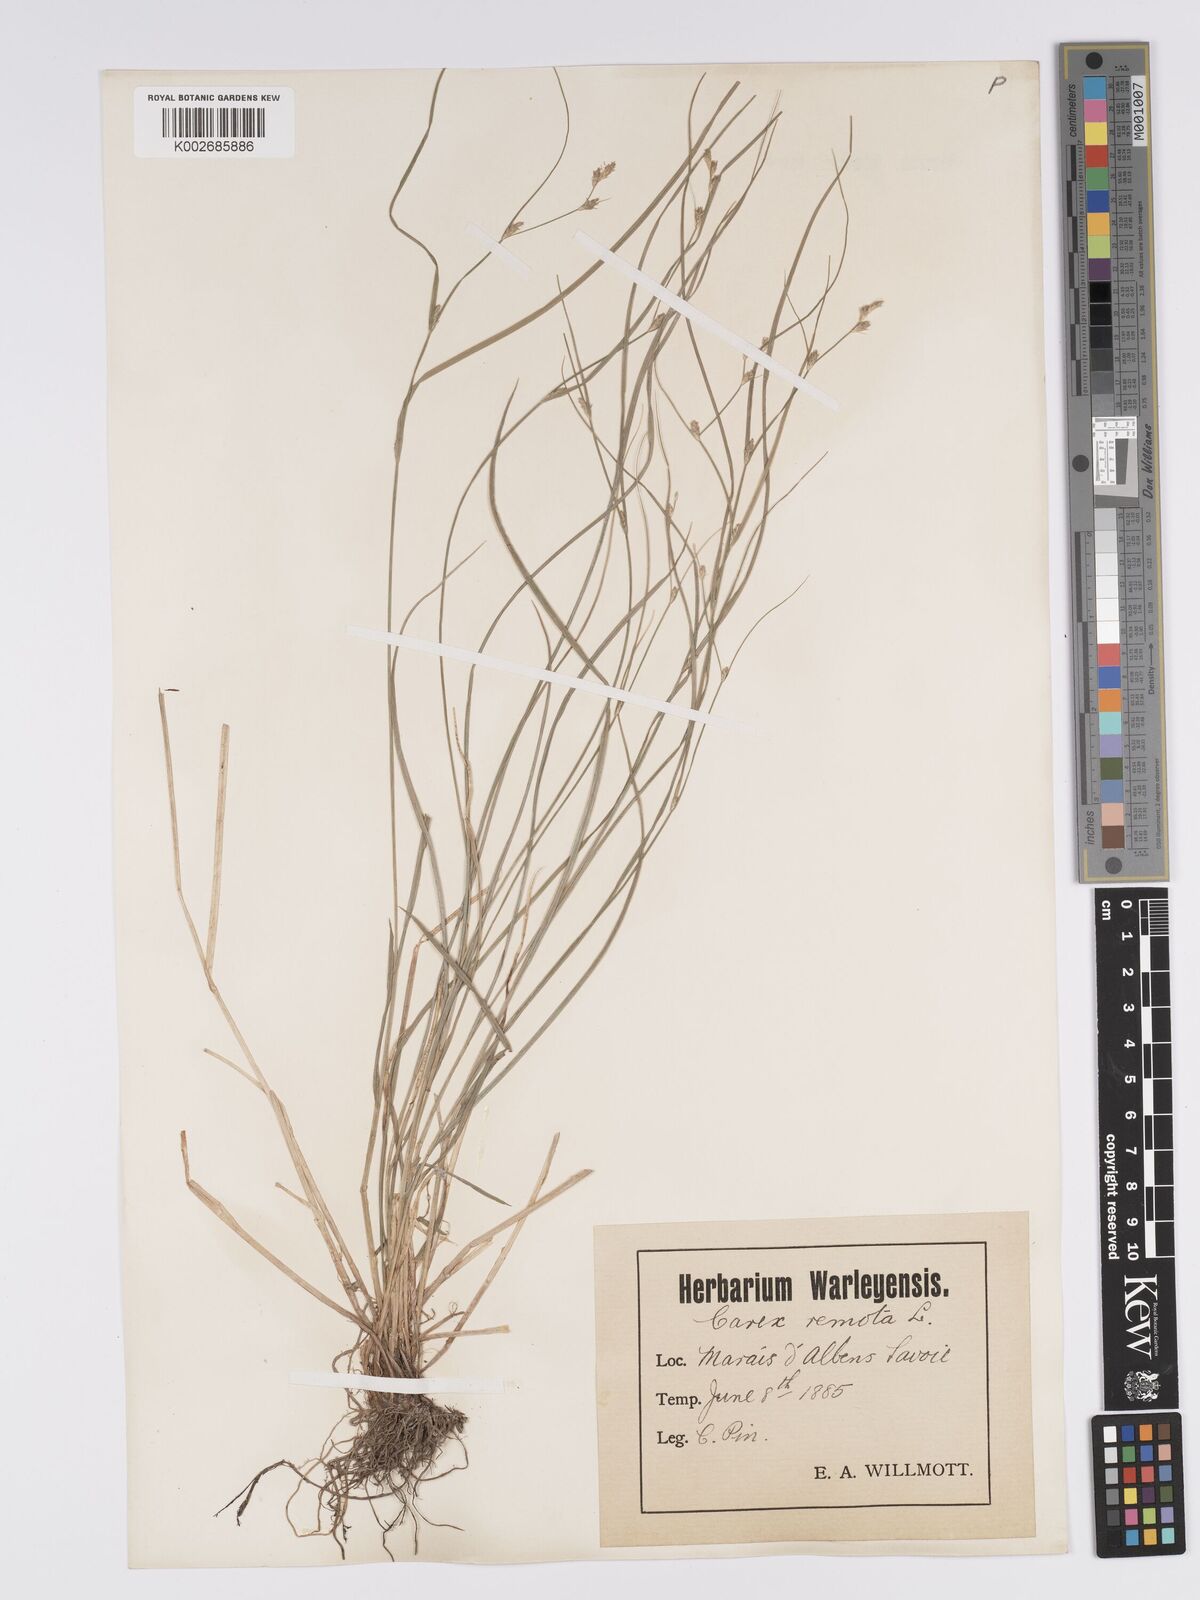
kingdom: Plantae
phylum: Tracheophyta
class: Liliopsida
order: Poales
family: Cyperaceae
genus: Carex
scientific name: Carex remota
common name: Remote sedge
